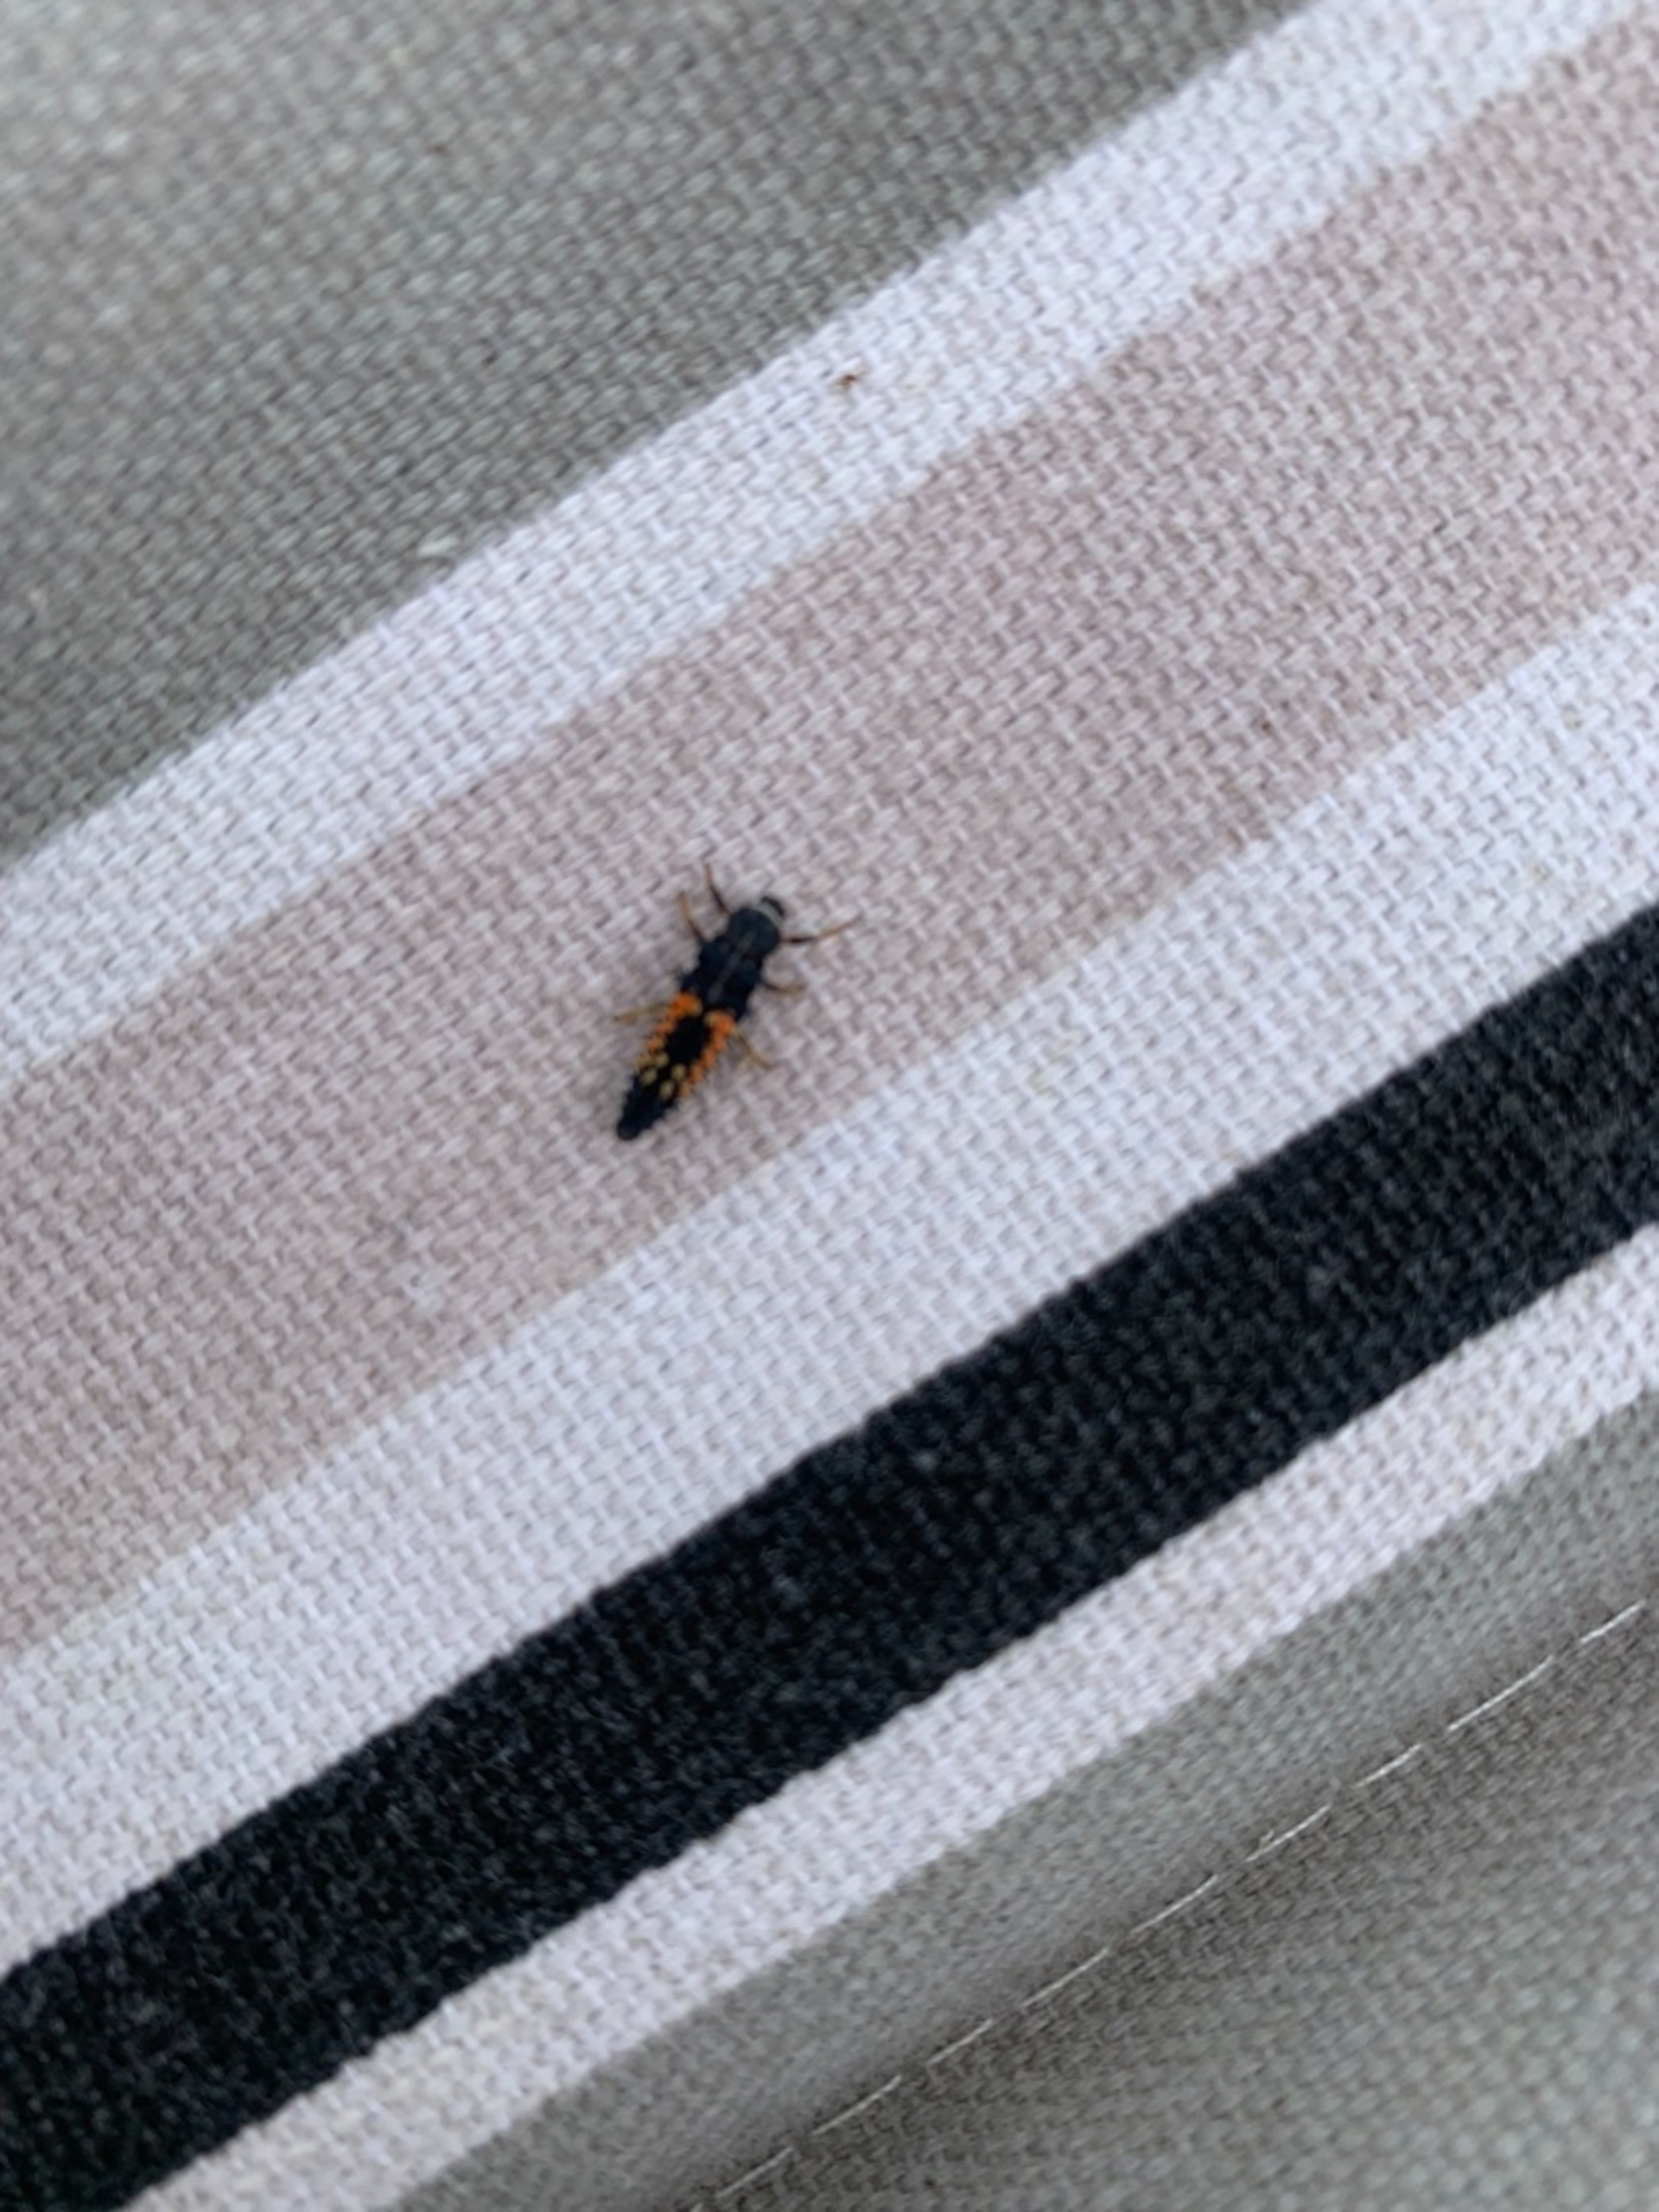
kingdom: Animalia
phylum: Arthropoda
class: Insecta
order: Coleoptera
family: Coccinellidae
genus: Harmonia
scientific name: Harmonia axyridis
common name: Harlekinmariehøne
